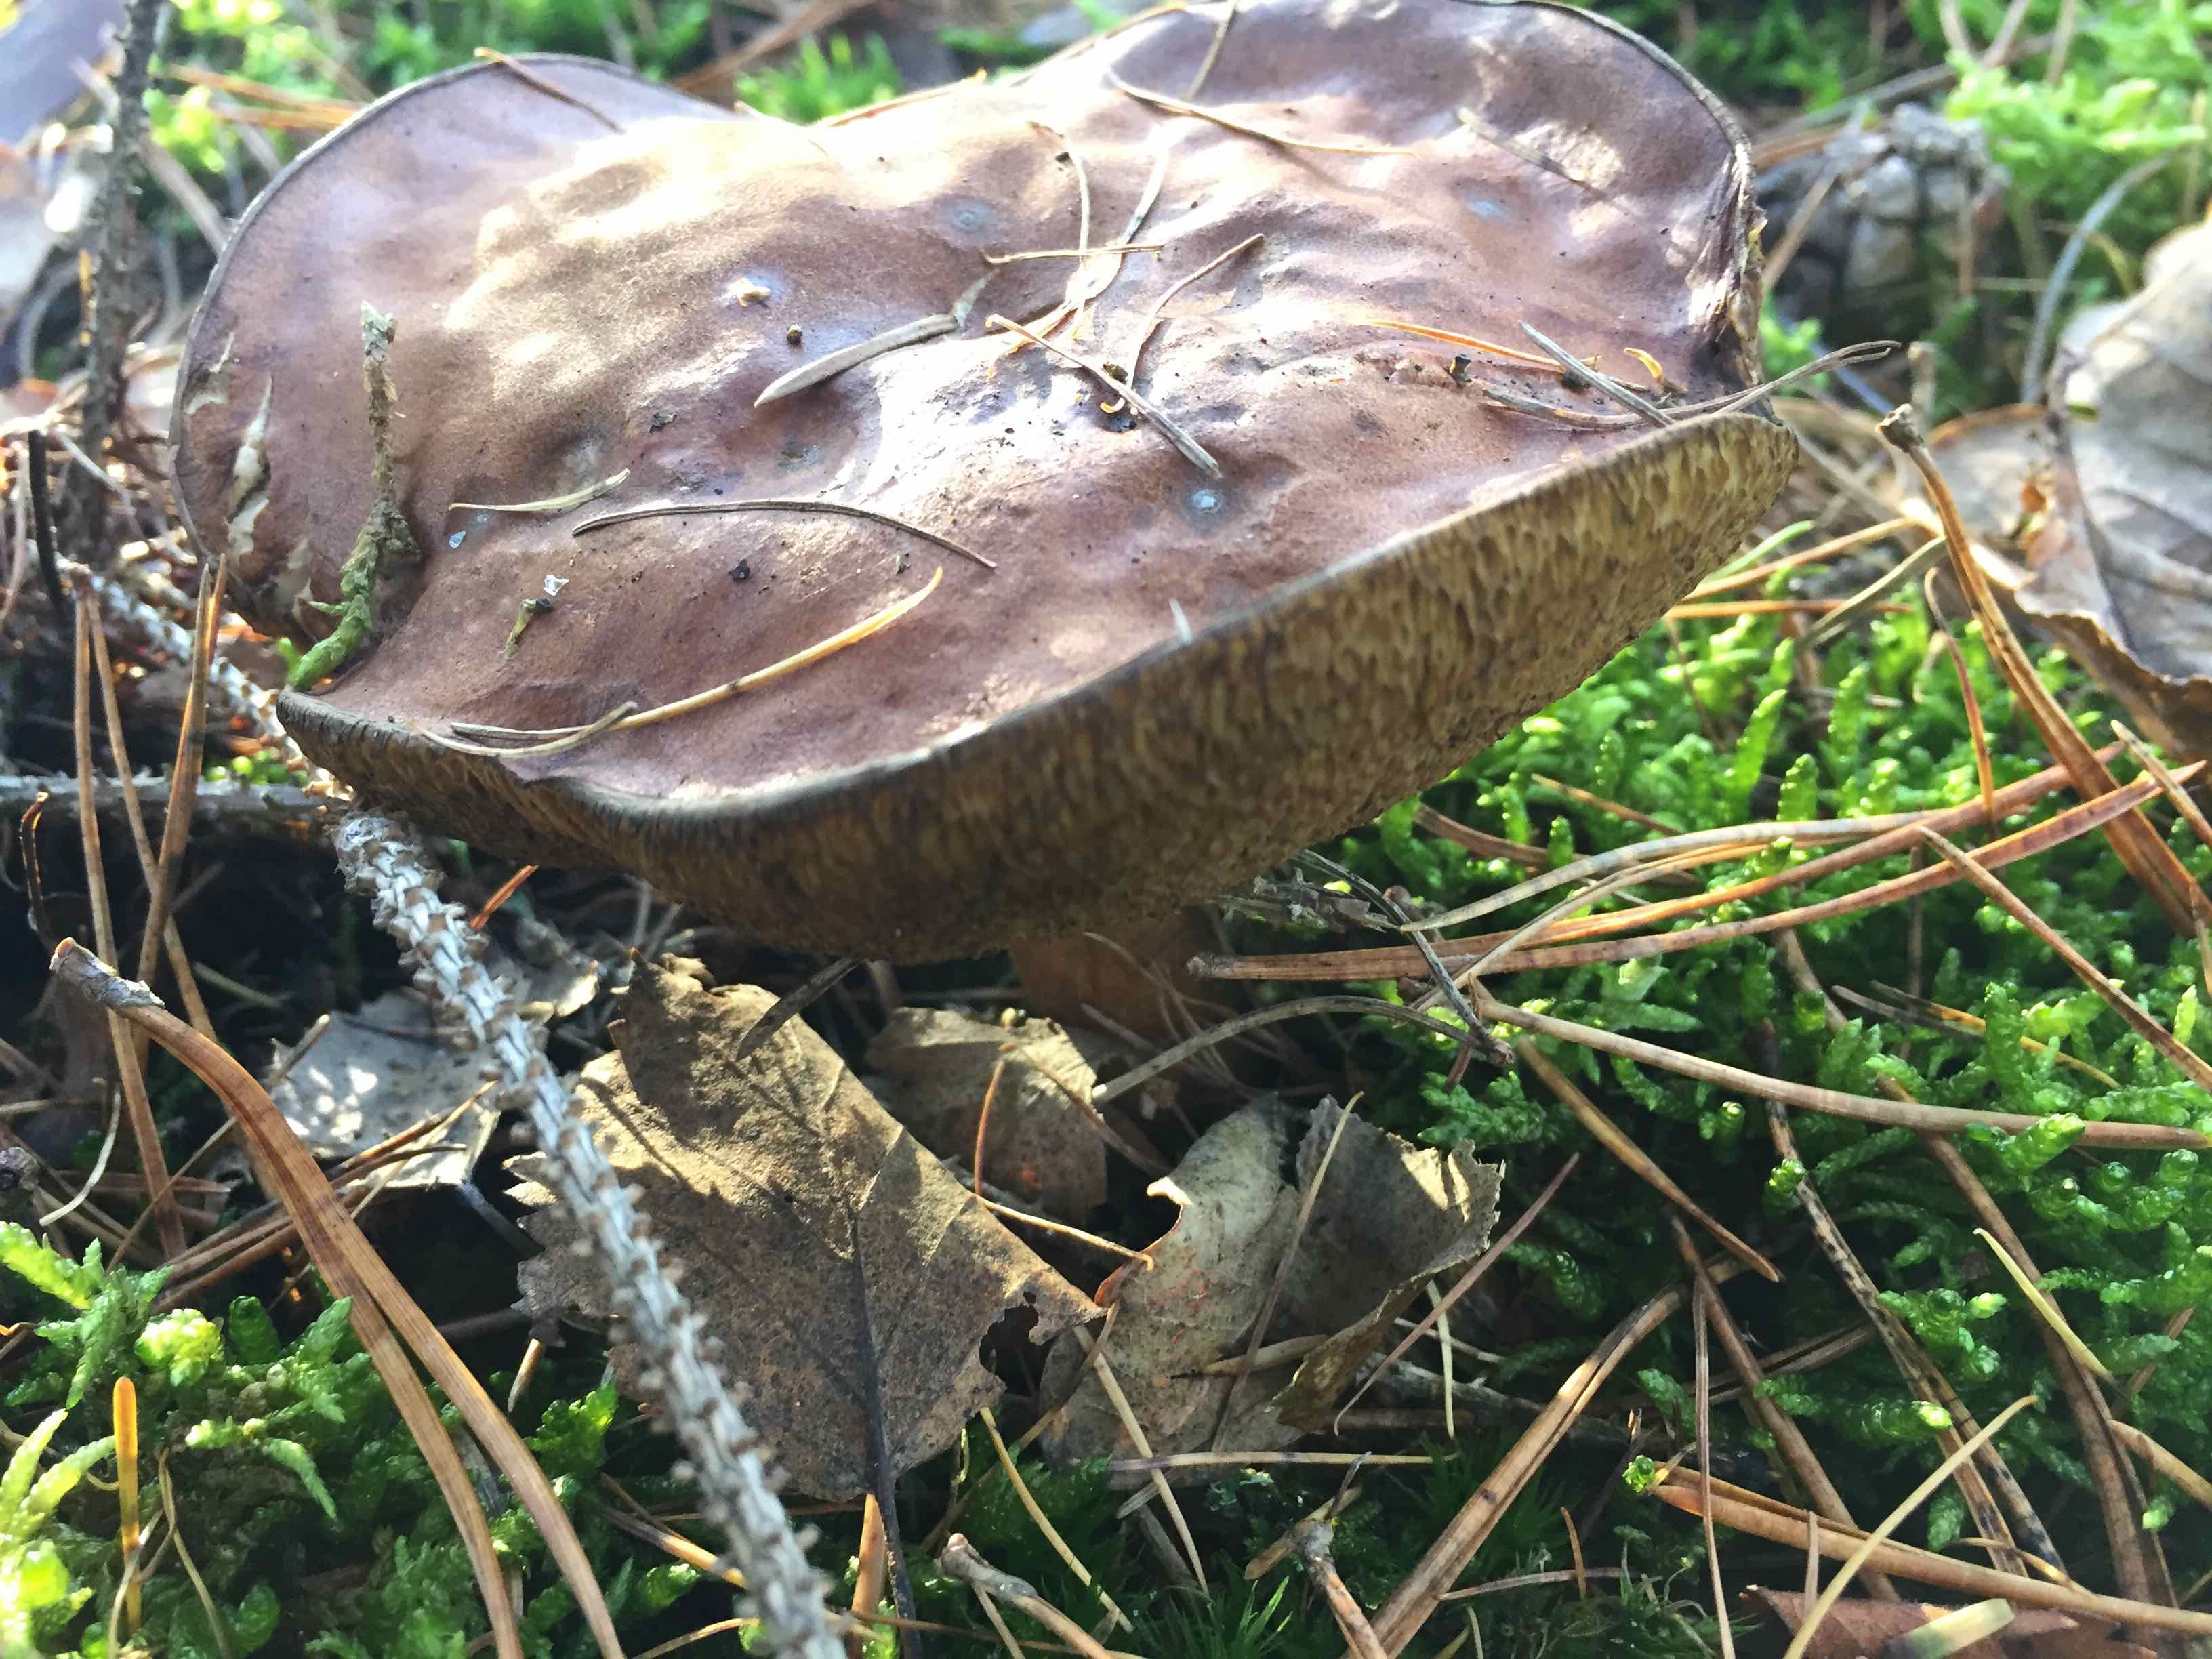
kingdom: Fungi
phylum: Basidiomycota
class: Agaricomycetes
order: Boletales
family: Boletaceae
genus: Imleria
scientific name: Imleria badia
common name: brunstokket rørhat
